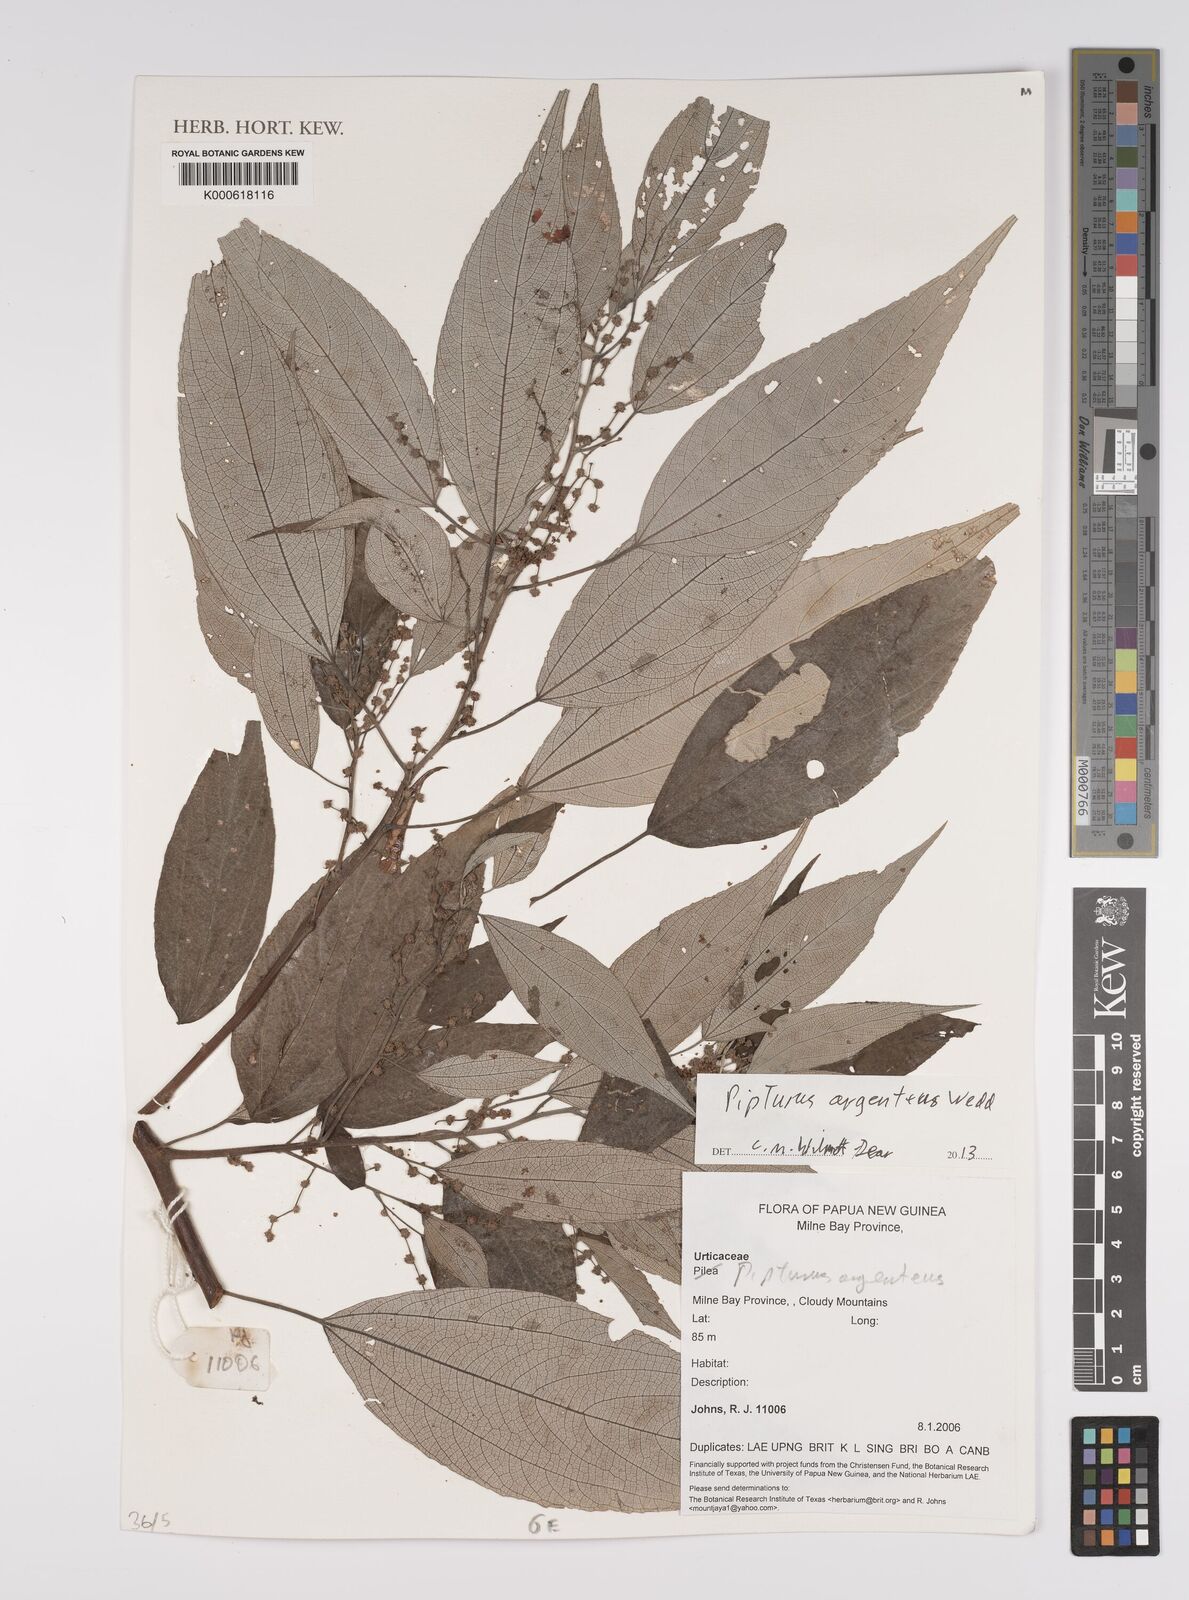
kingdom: Plantae
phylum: Tracheophyta
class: Magnoliopsida
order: Rosales
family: Urticaceae
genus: Pipturus
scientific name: Pipturus argenteus
